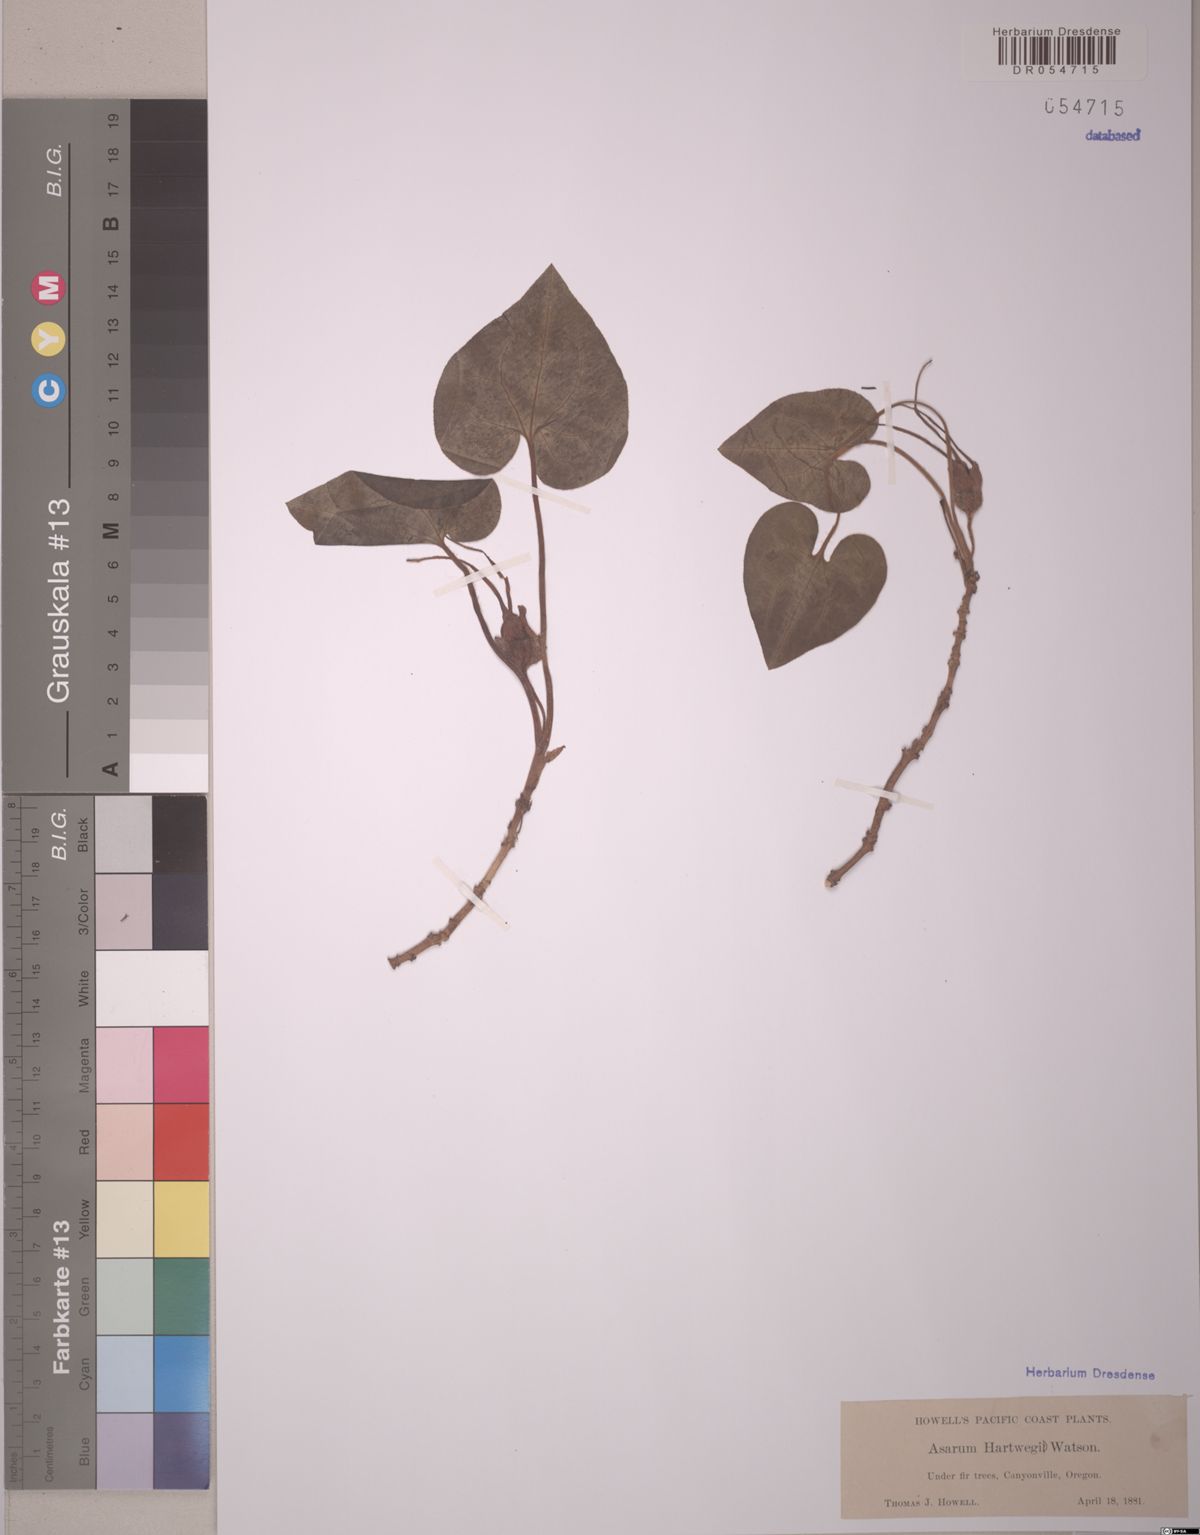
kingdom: Plantae
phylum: Tracheophyta
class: Magnoliopsida
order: Piperales
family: Aristolochiaceae
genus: Asarum
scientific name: Asarum hartwegii
